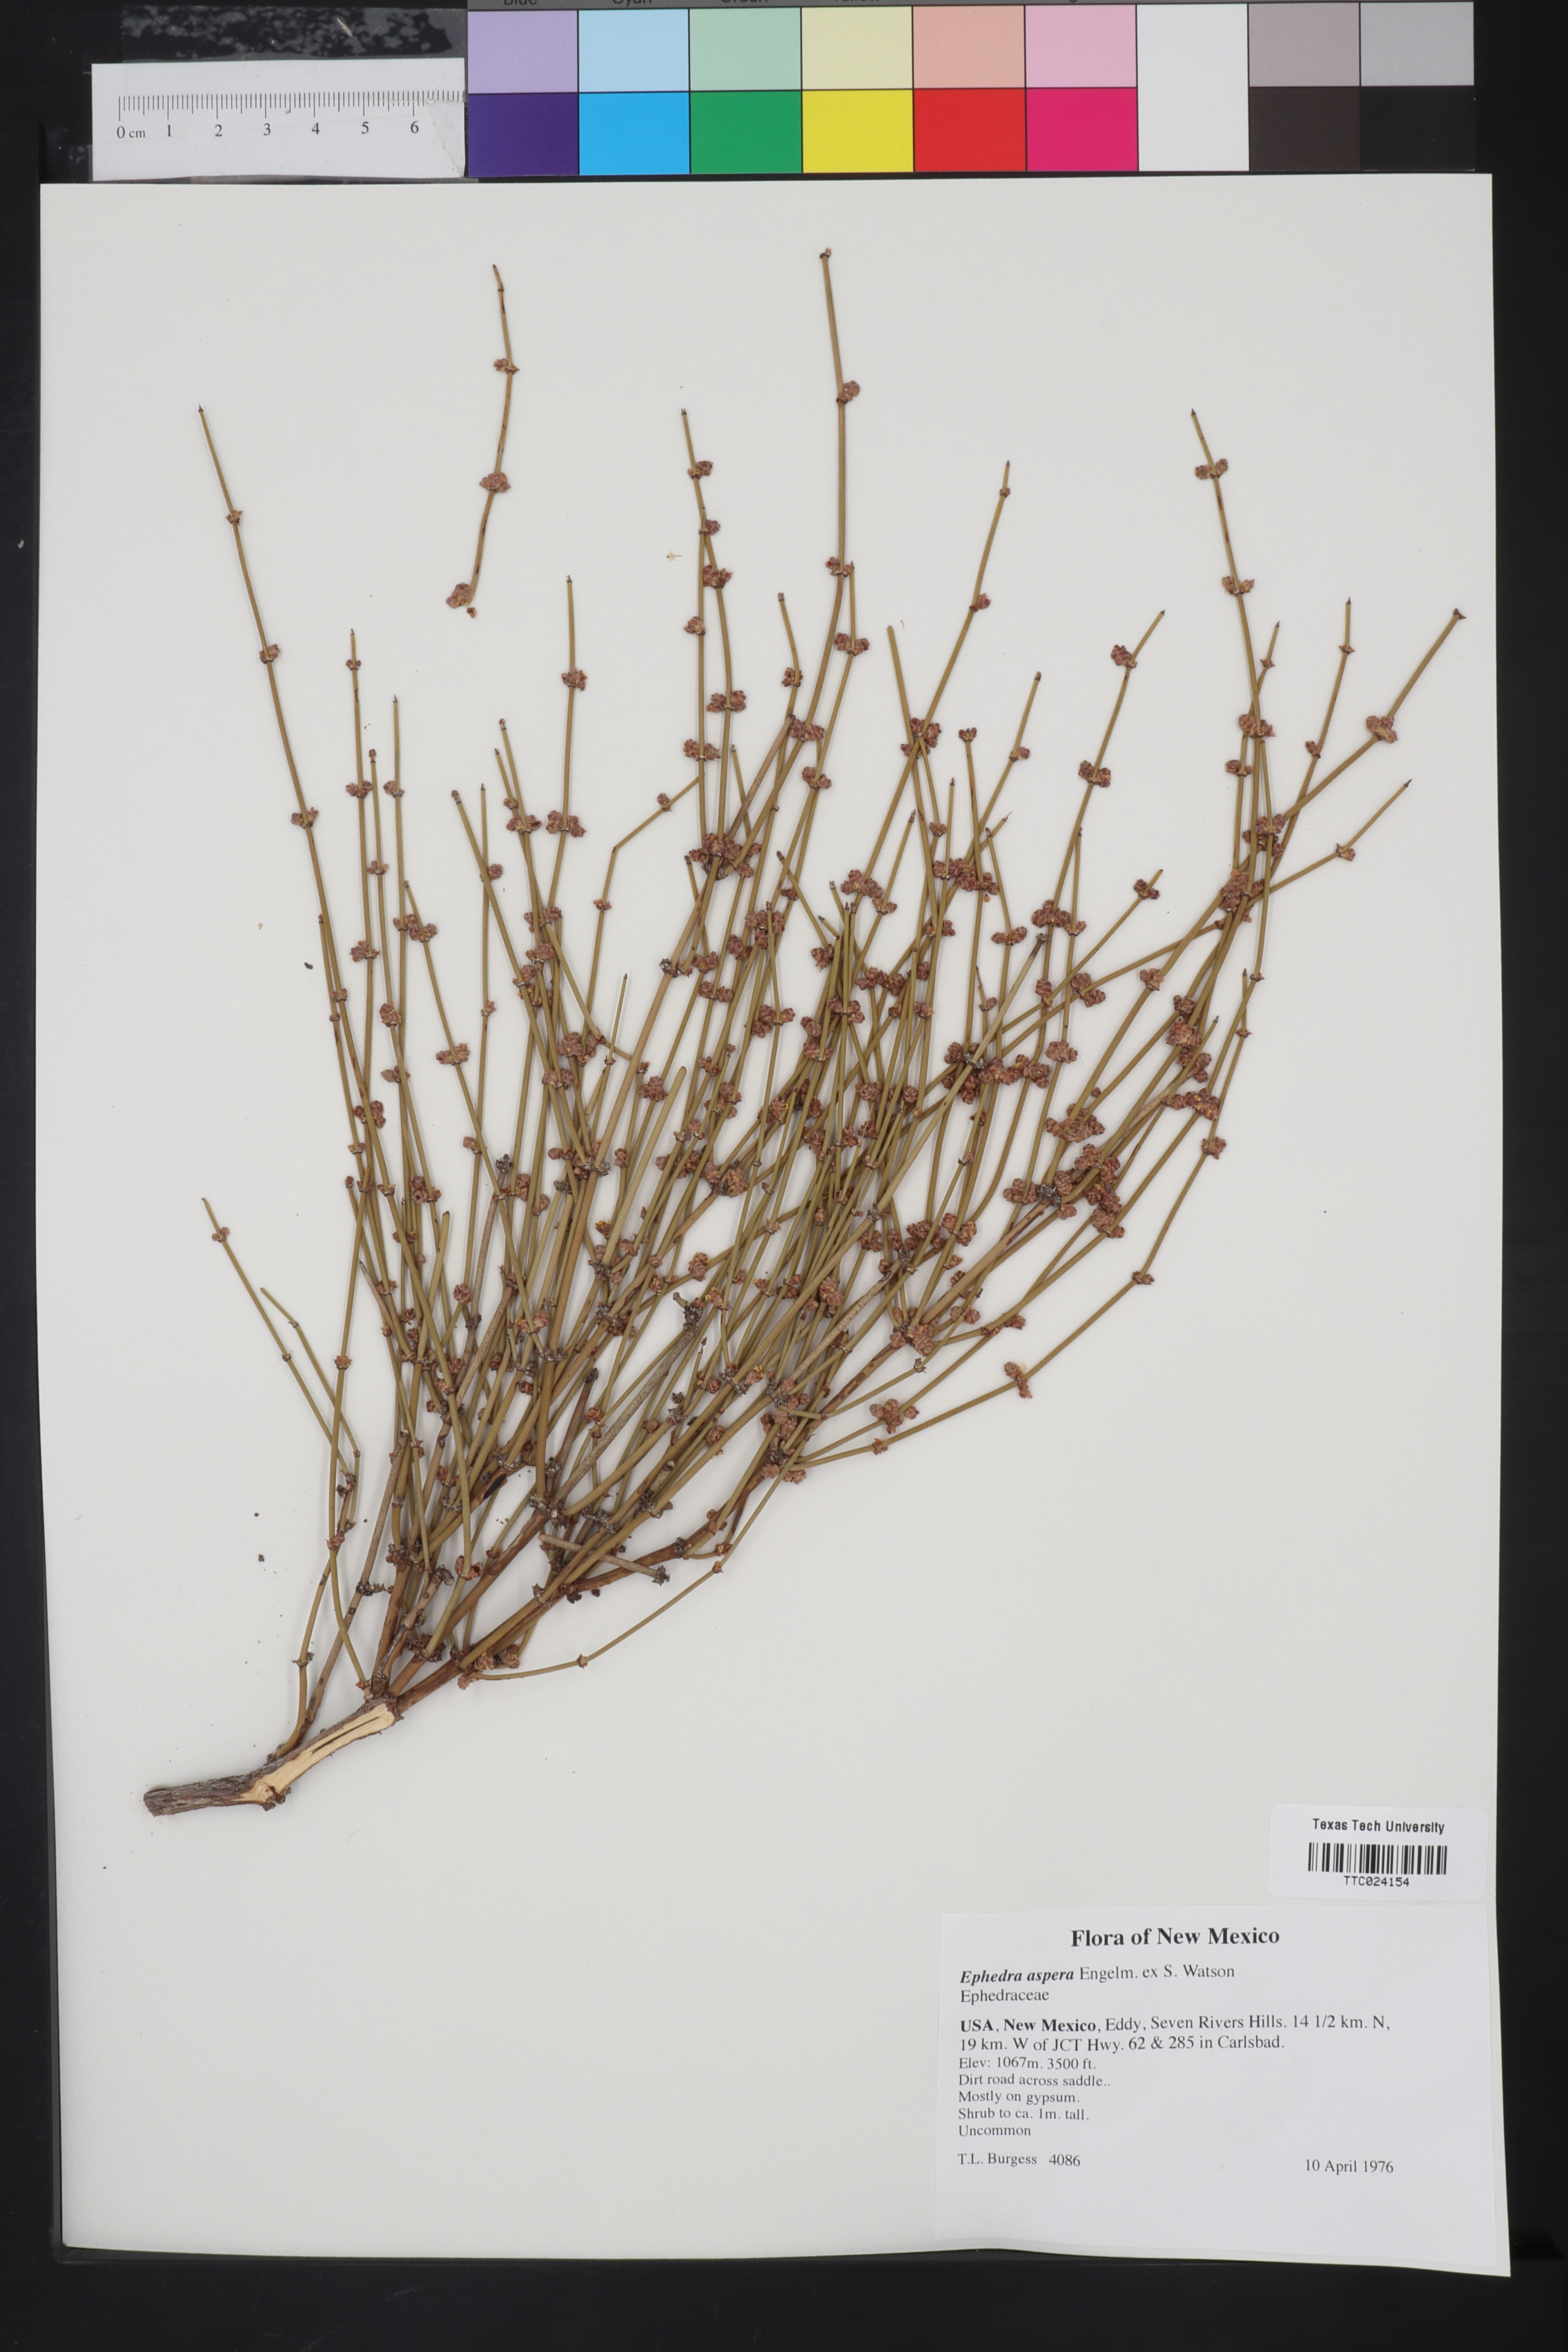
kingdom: Plantae
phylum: Tracheophyta
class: Gnetopsida
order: Ephedrales
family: Ephedraceae
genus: Ephedra
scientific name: Ephedra aspera
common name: Boundary ephedra
